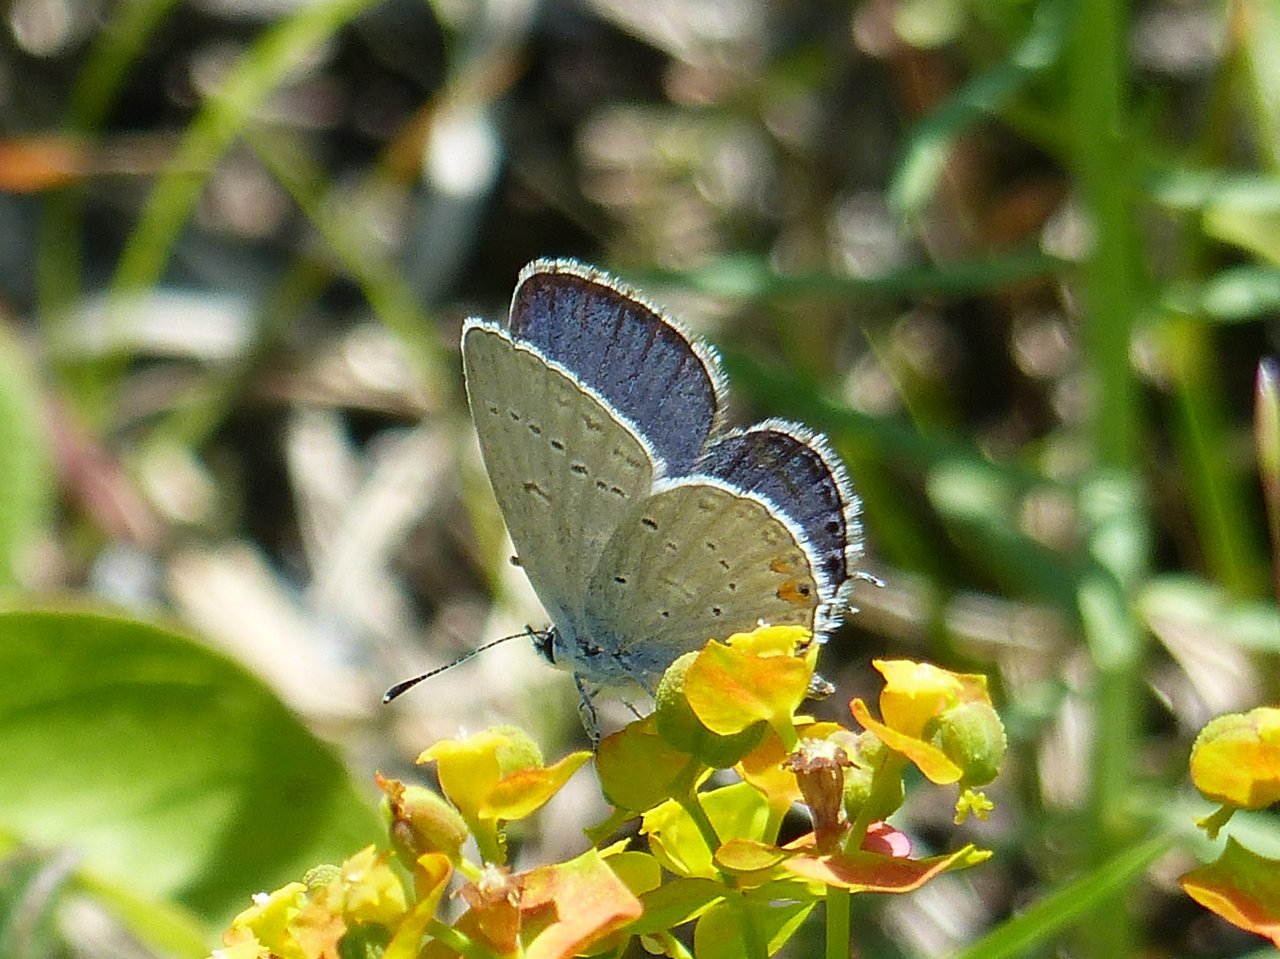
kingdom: Animalia
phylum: Arthropoda
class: Insecta
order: Lepidoptera
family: Lycaenidae
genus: Elkalyce
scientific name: Elkalyce comyntas
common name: Eastern Tailed-Blue
